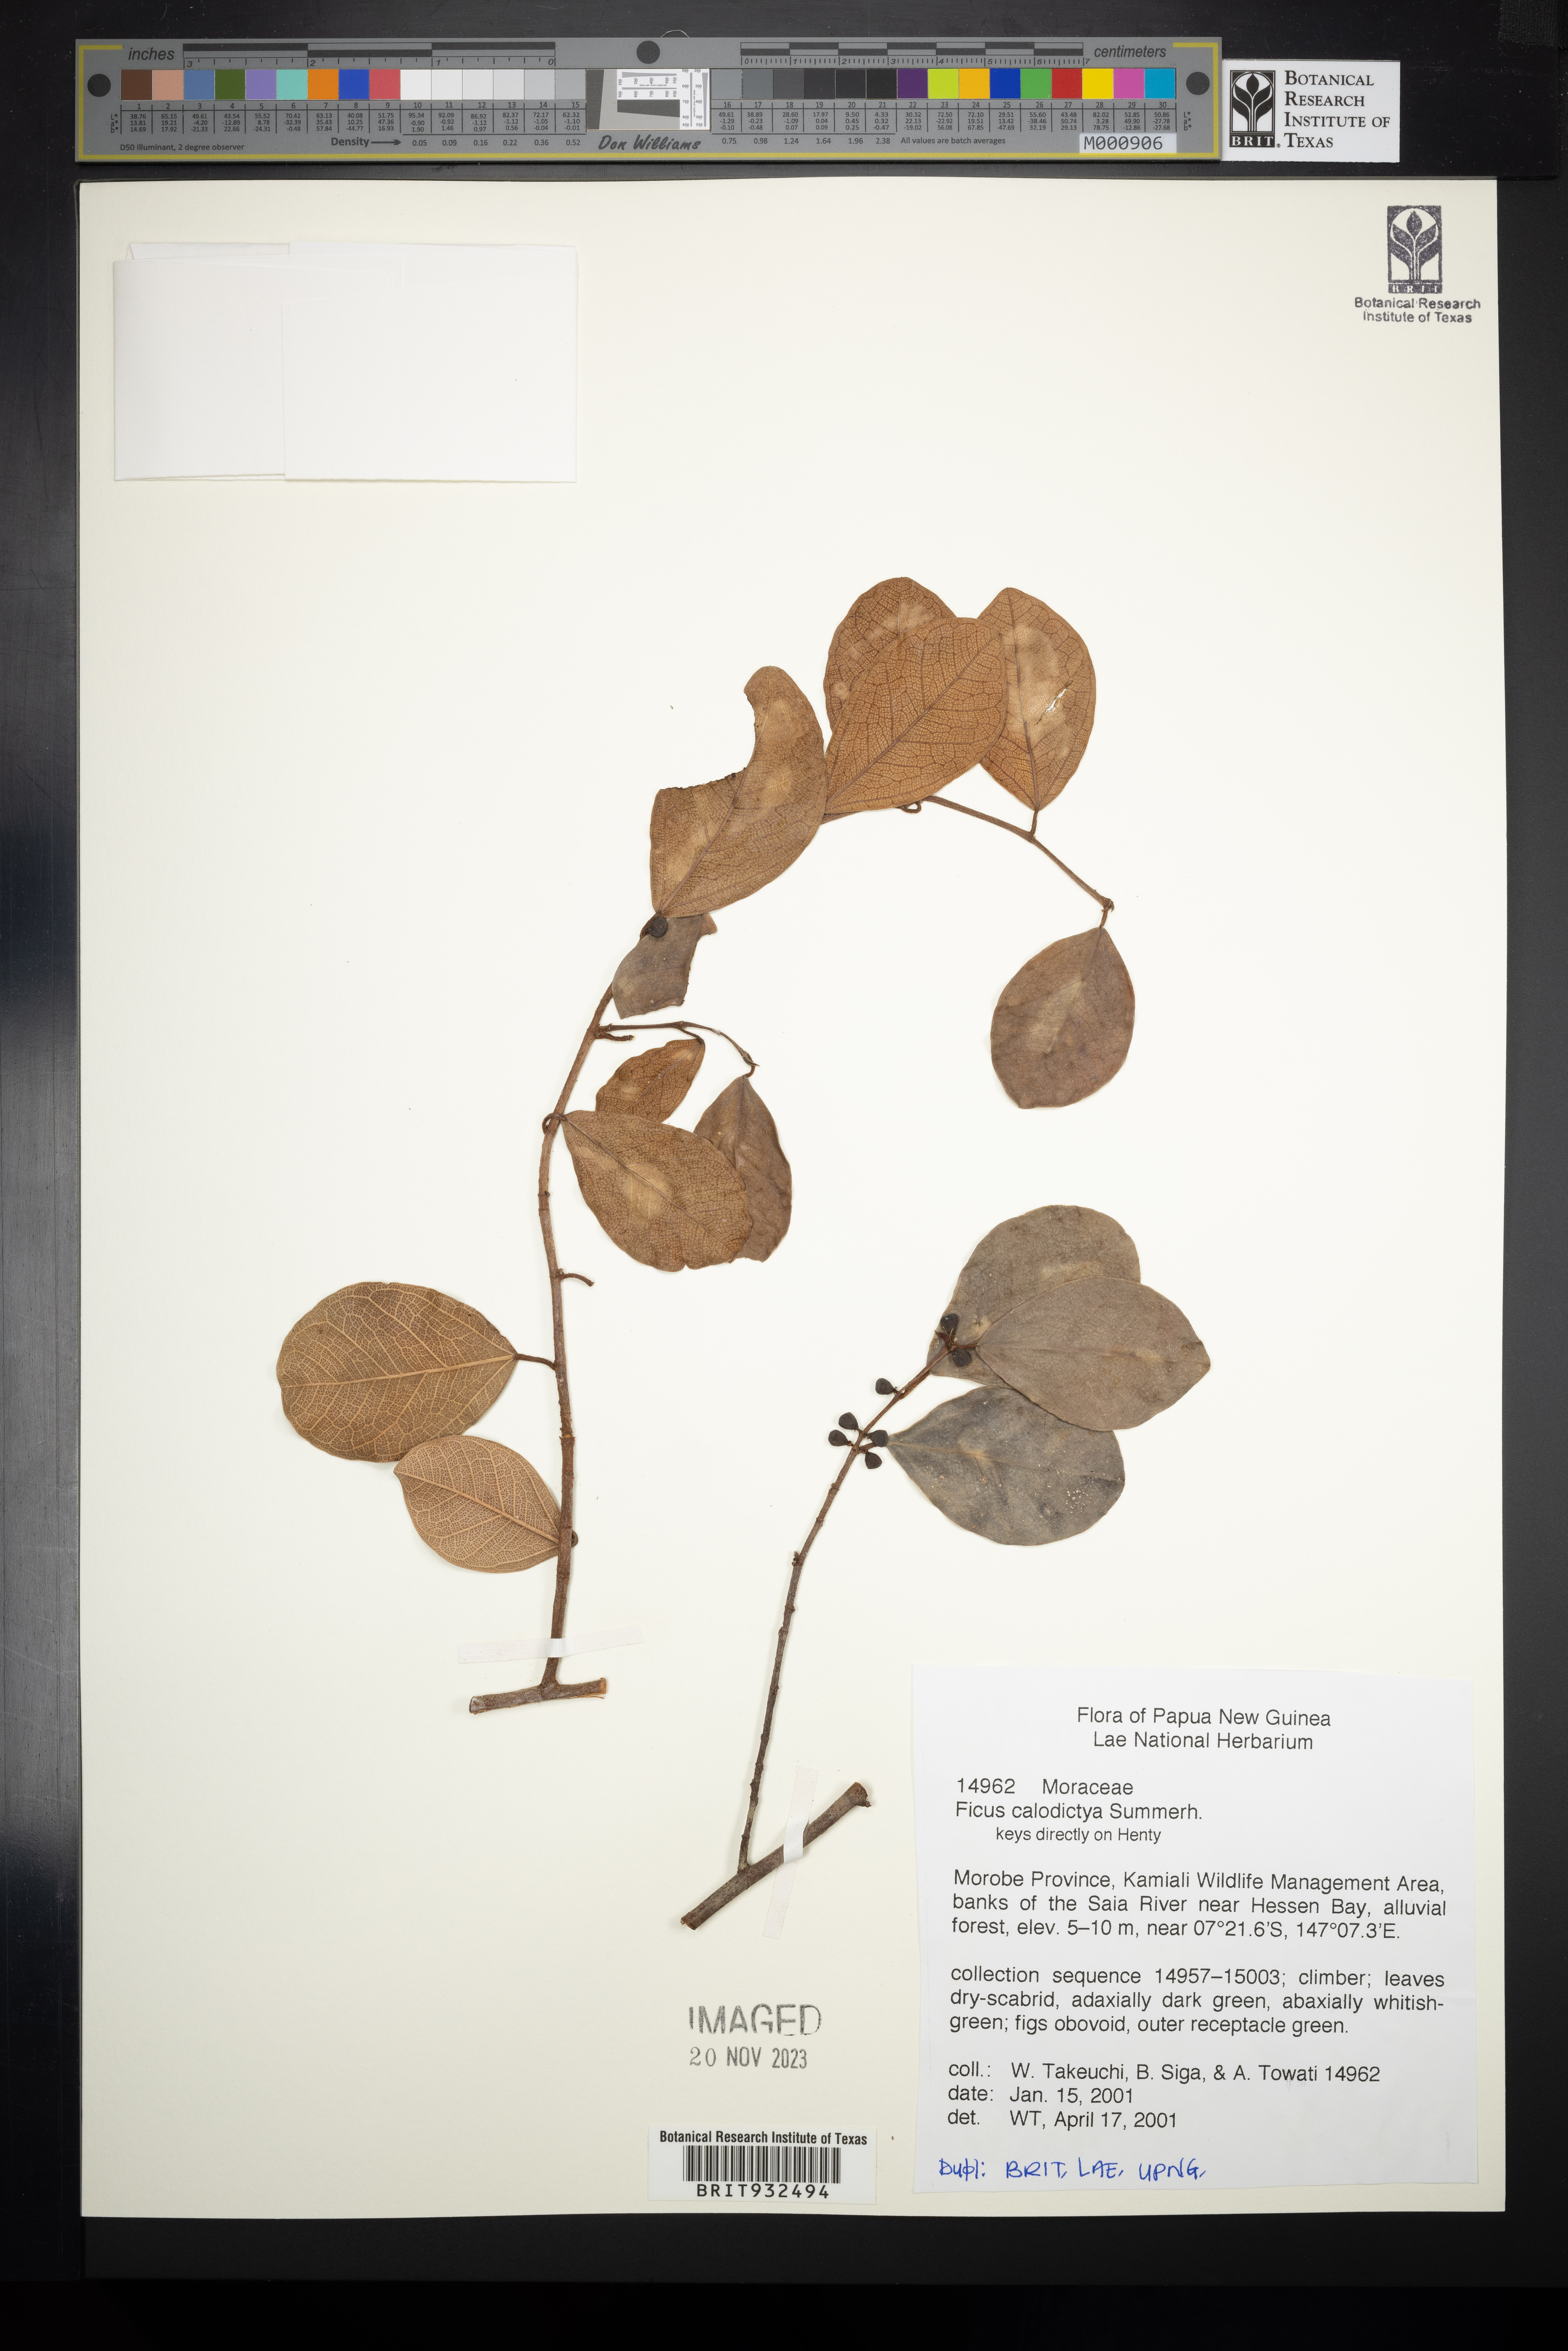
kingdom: Plantae
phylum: Tracheophyta
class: Magnoliopsida
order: Rosales
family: Moraceae
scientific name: Moraceae
